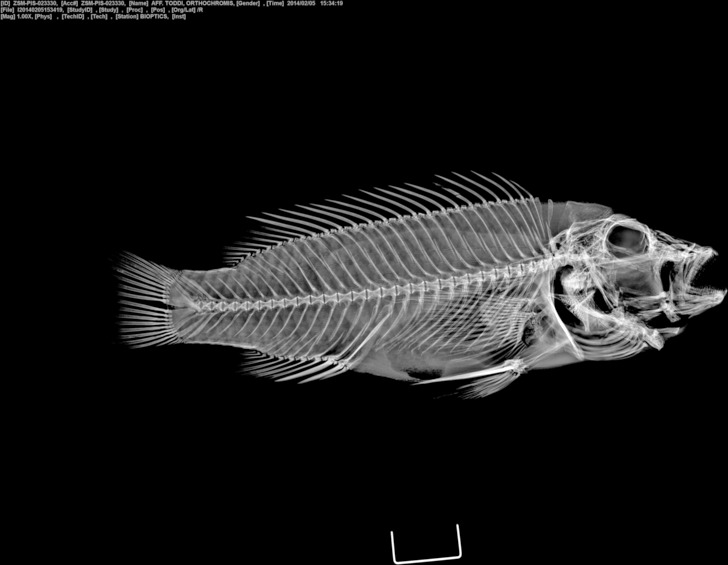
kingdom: Animalia
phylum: Chordata
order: Perciformes
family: Cichlidae
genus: Orthochromis
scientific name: Orthochromis stormsi
